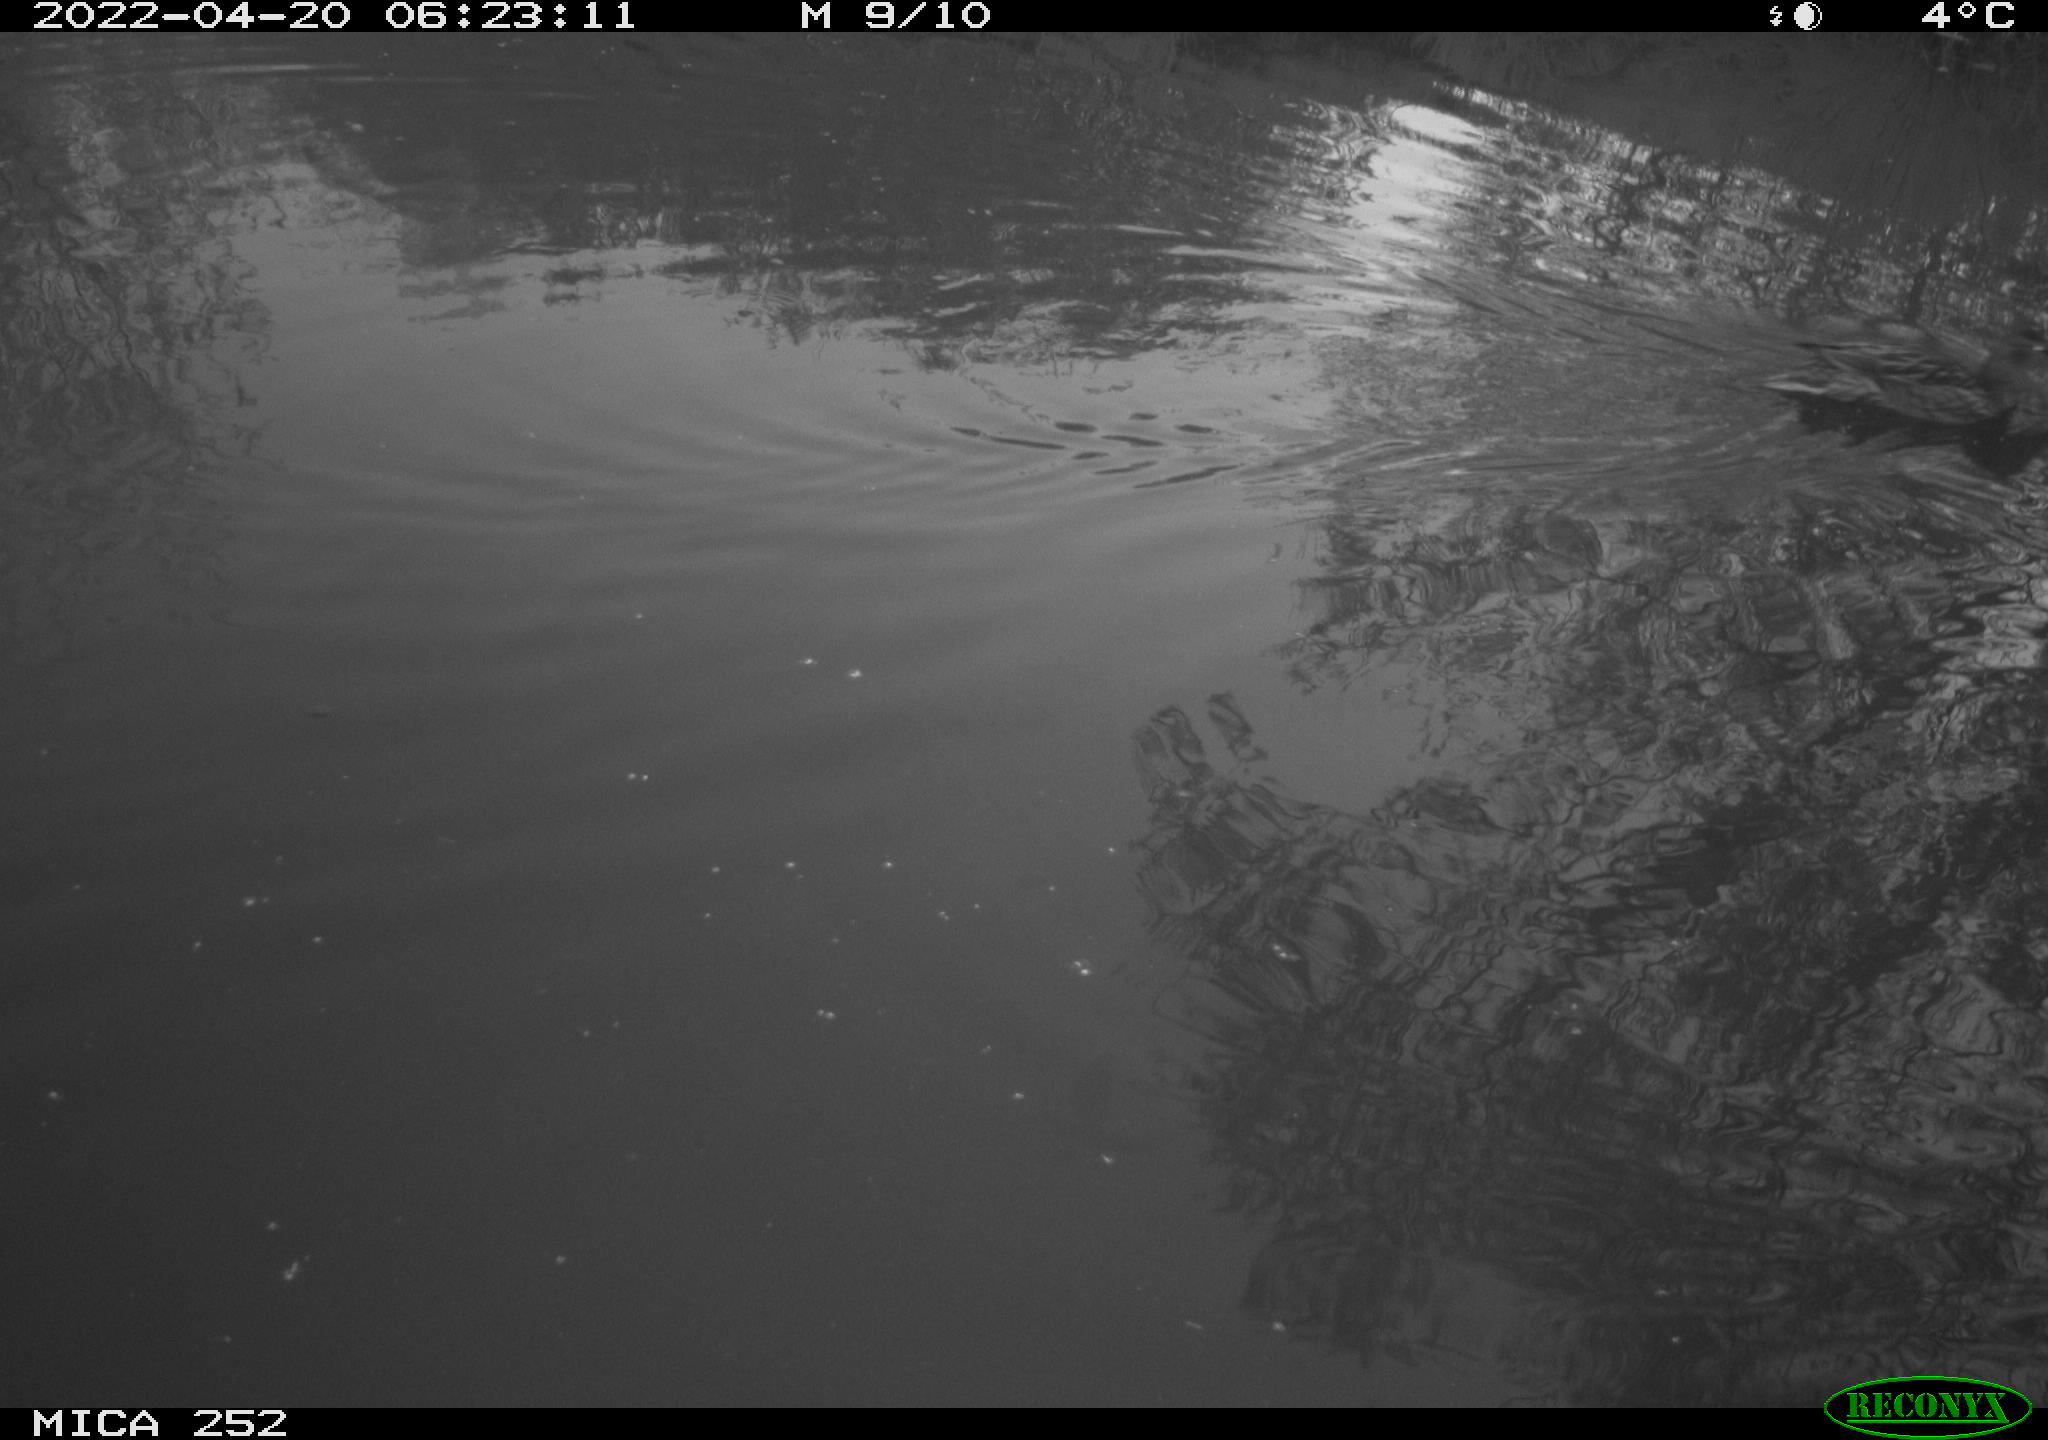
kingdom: Animalia
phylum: Chordata
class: Aves
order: Anseriformes
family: Anatidae
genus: Anas
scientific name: Anas platyrhynchos
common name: Mallard
